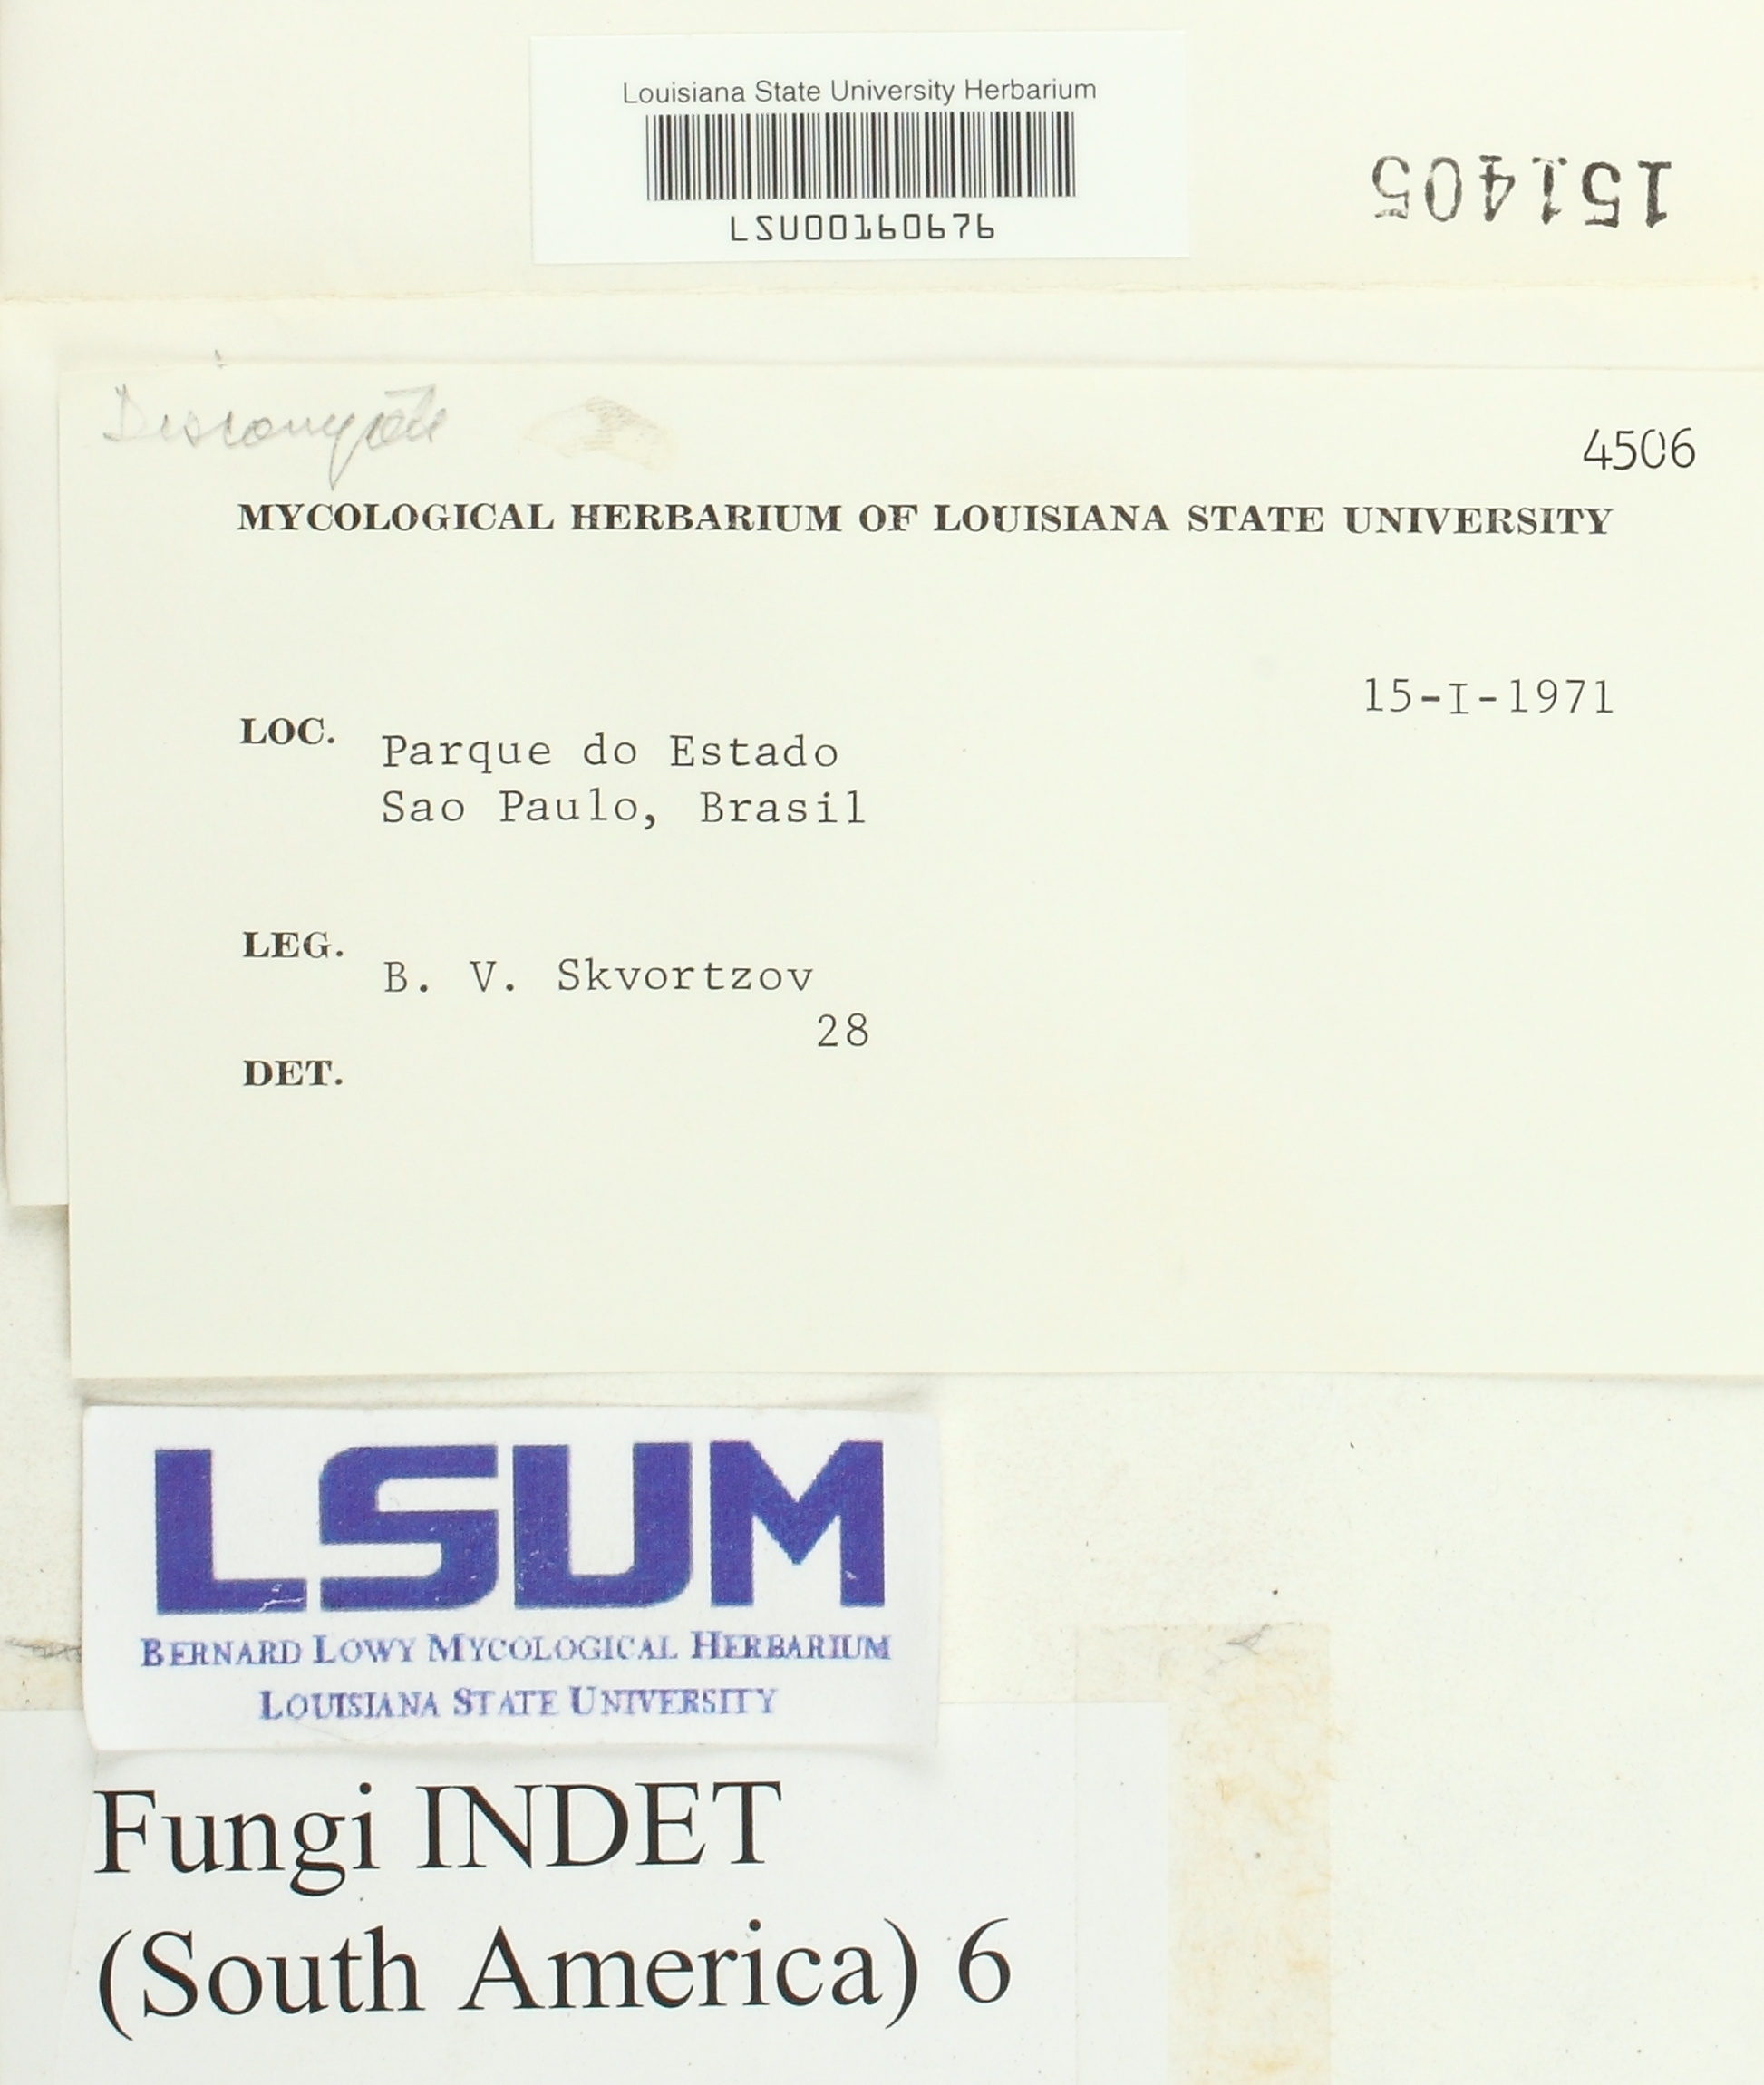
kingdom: Fungi
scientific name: Fungi
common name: Fungi
